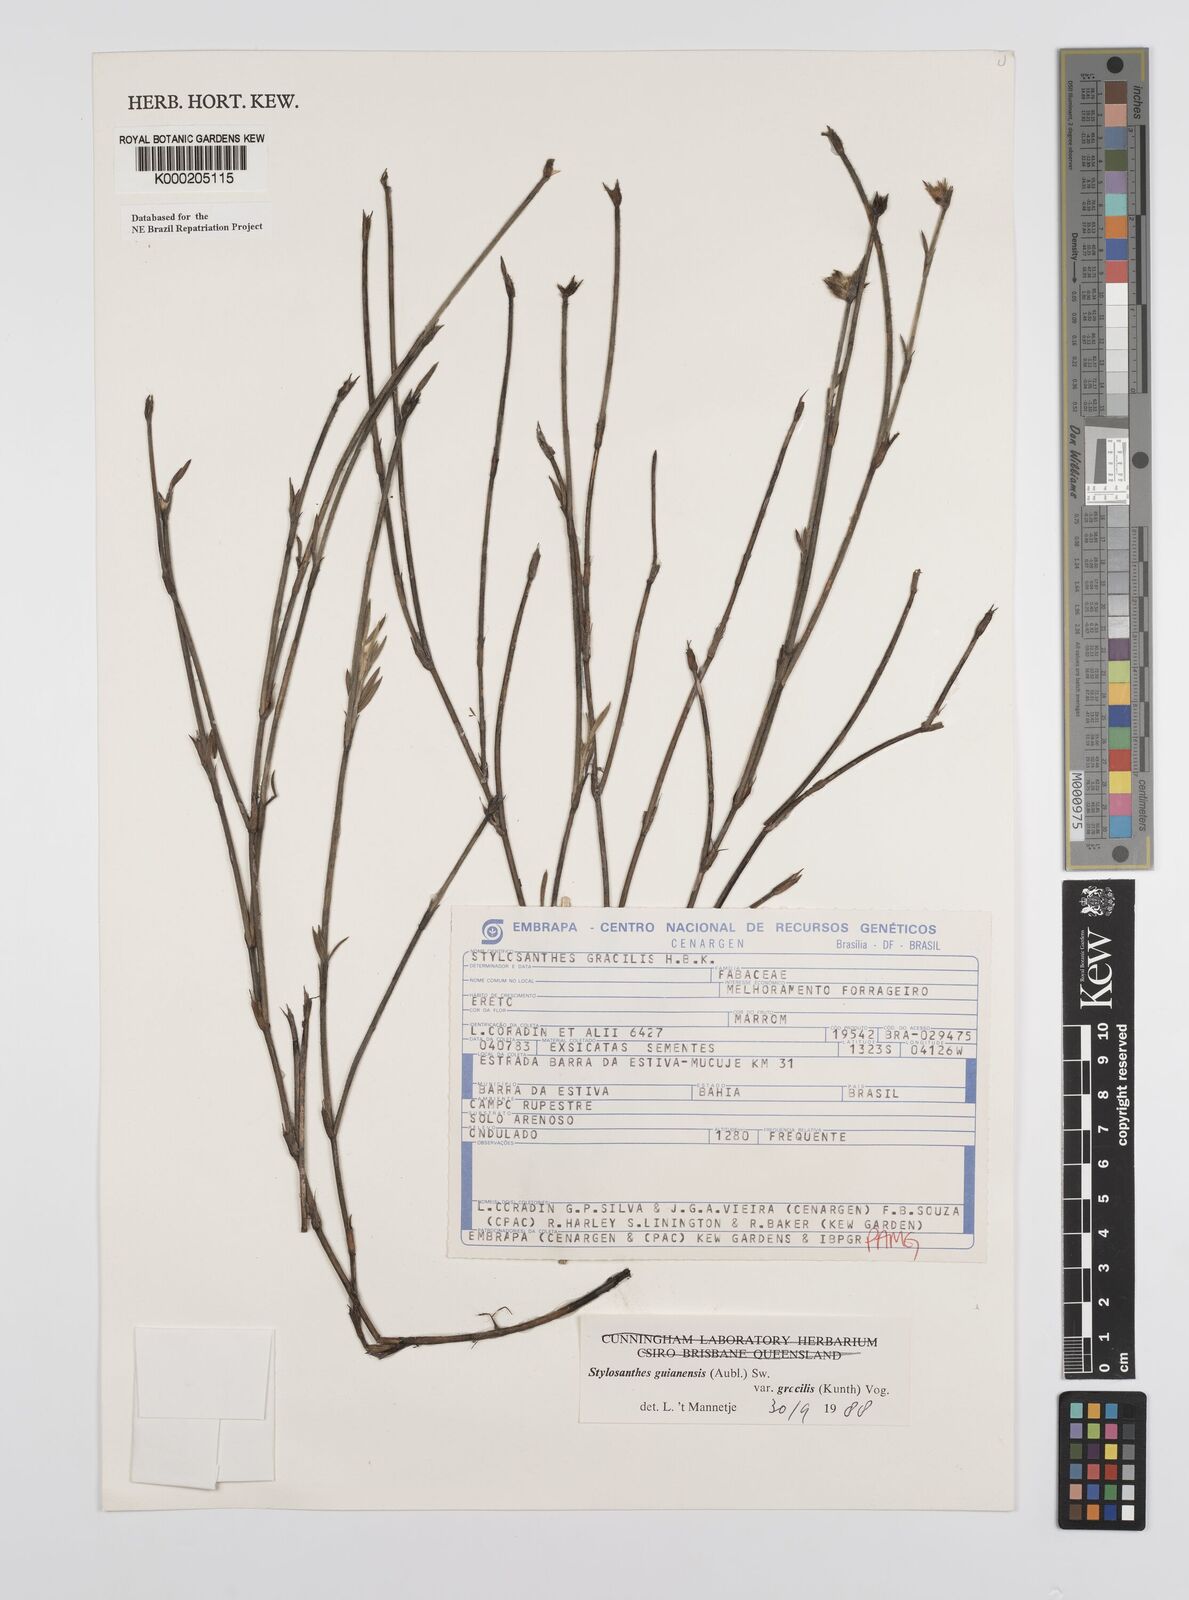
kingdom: Plantae
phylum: Tracheophyta
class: Magnoliopsida
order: Fabales
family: Fabaceae
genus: Stylosanthes
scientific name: Stylosanthes guianensis
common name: Pencil flower
